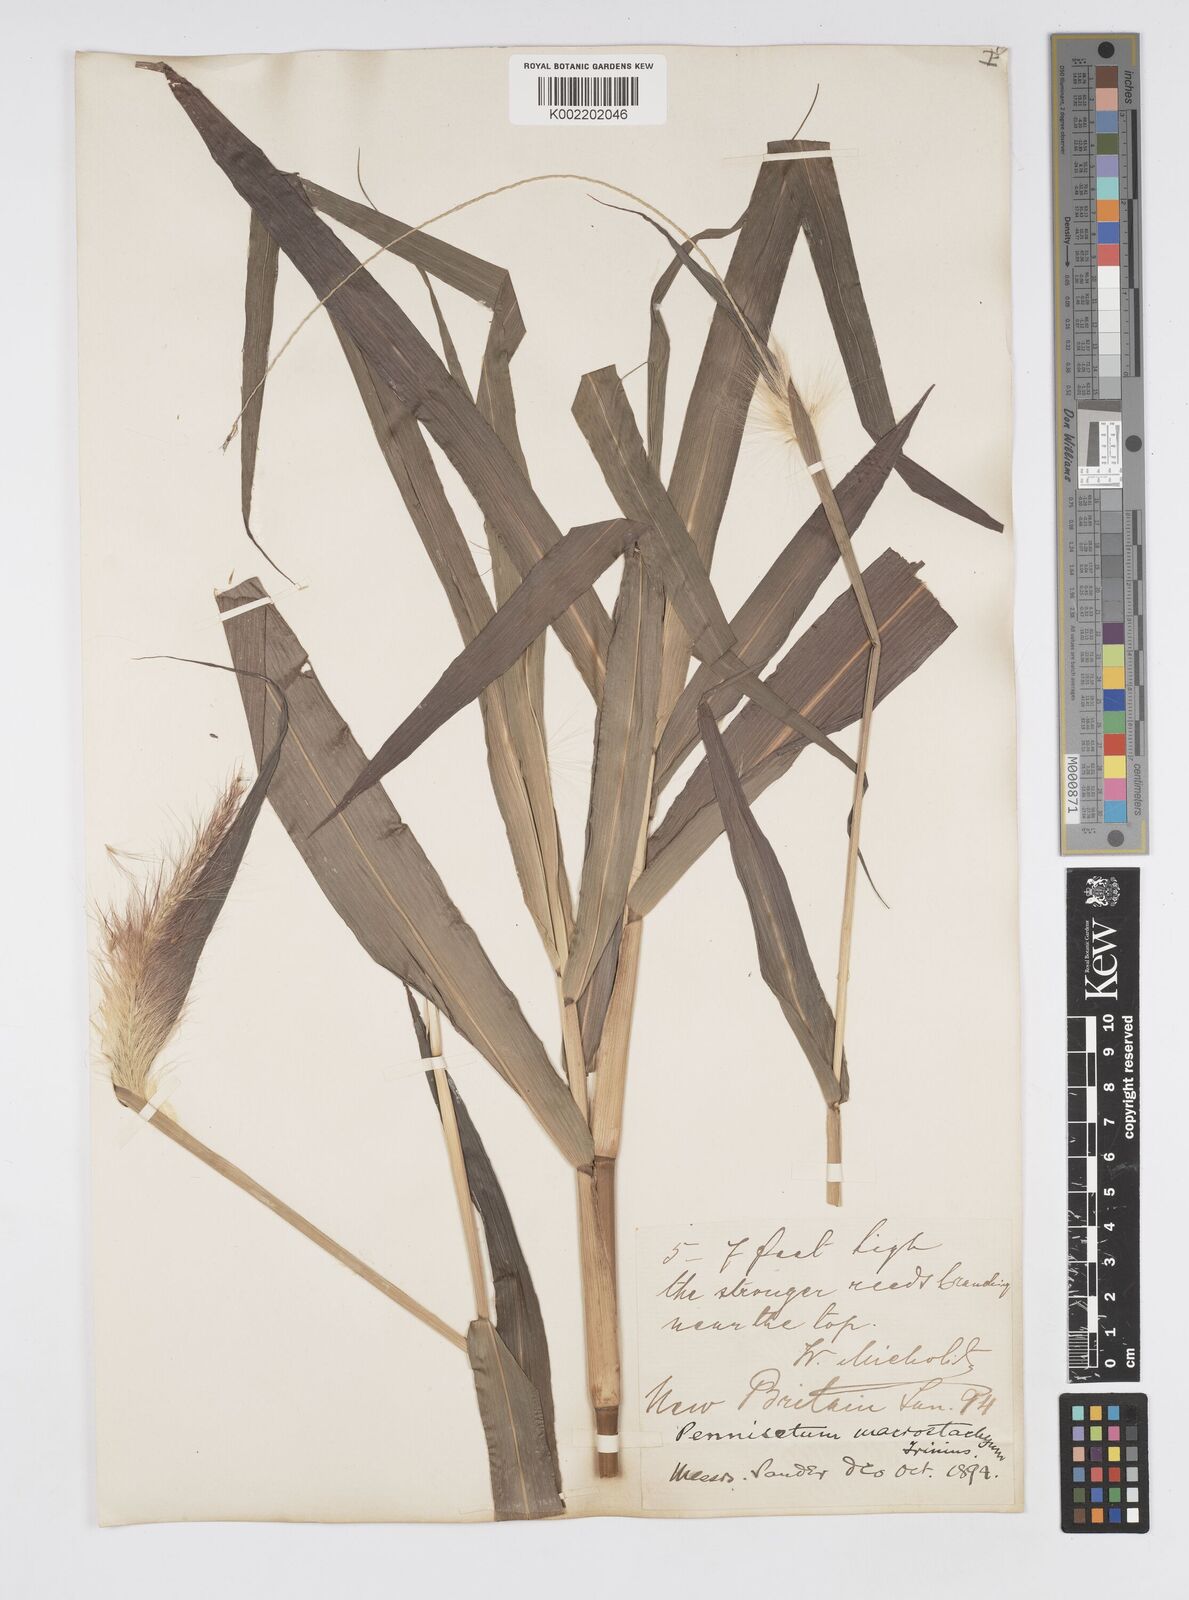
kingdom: Plantae
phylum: Tracheophyta
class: Liliopsida
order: Poales
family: Poaceae
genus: Cenchrus
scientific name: Cenchrus purpureus
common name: Elephant grass
